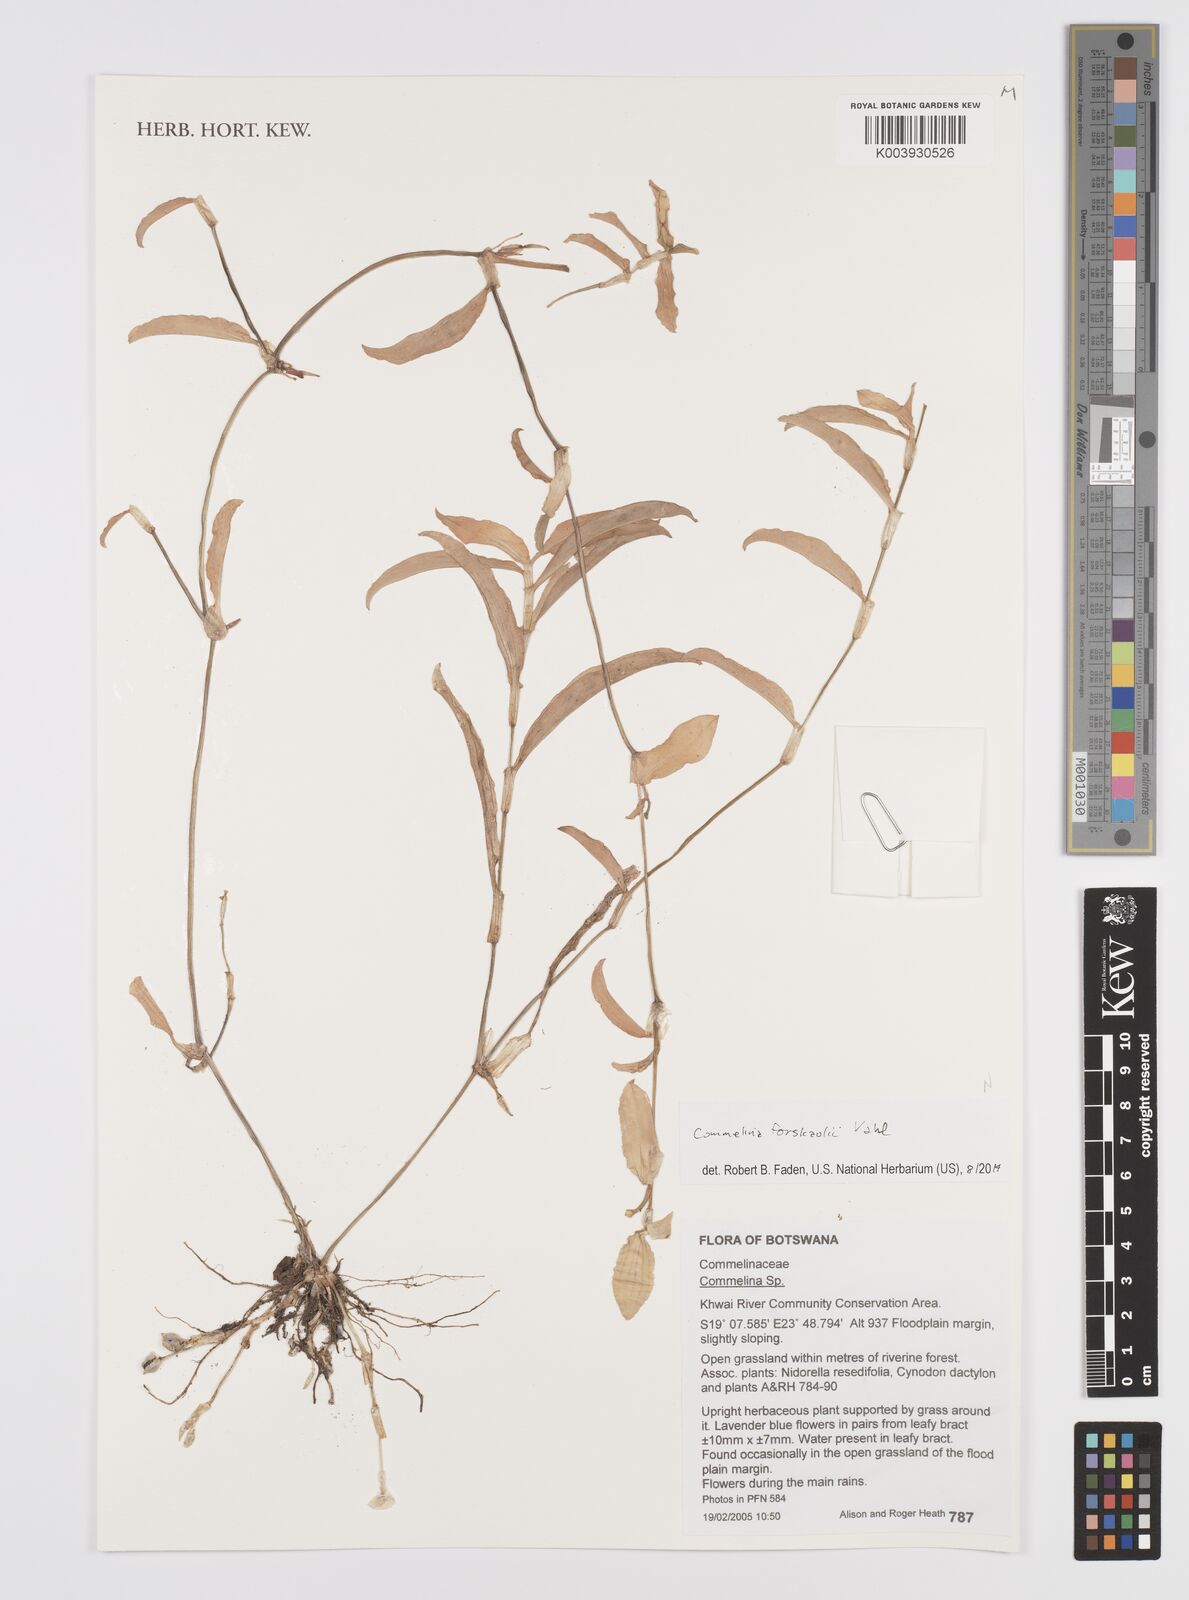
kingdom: Plantae
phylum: Tracheophyta
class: Liliopsida
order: Commelinales
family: Commelinaceae
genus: Commelina
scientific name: Commelina forskaolii
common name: Rat's ear
